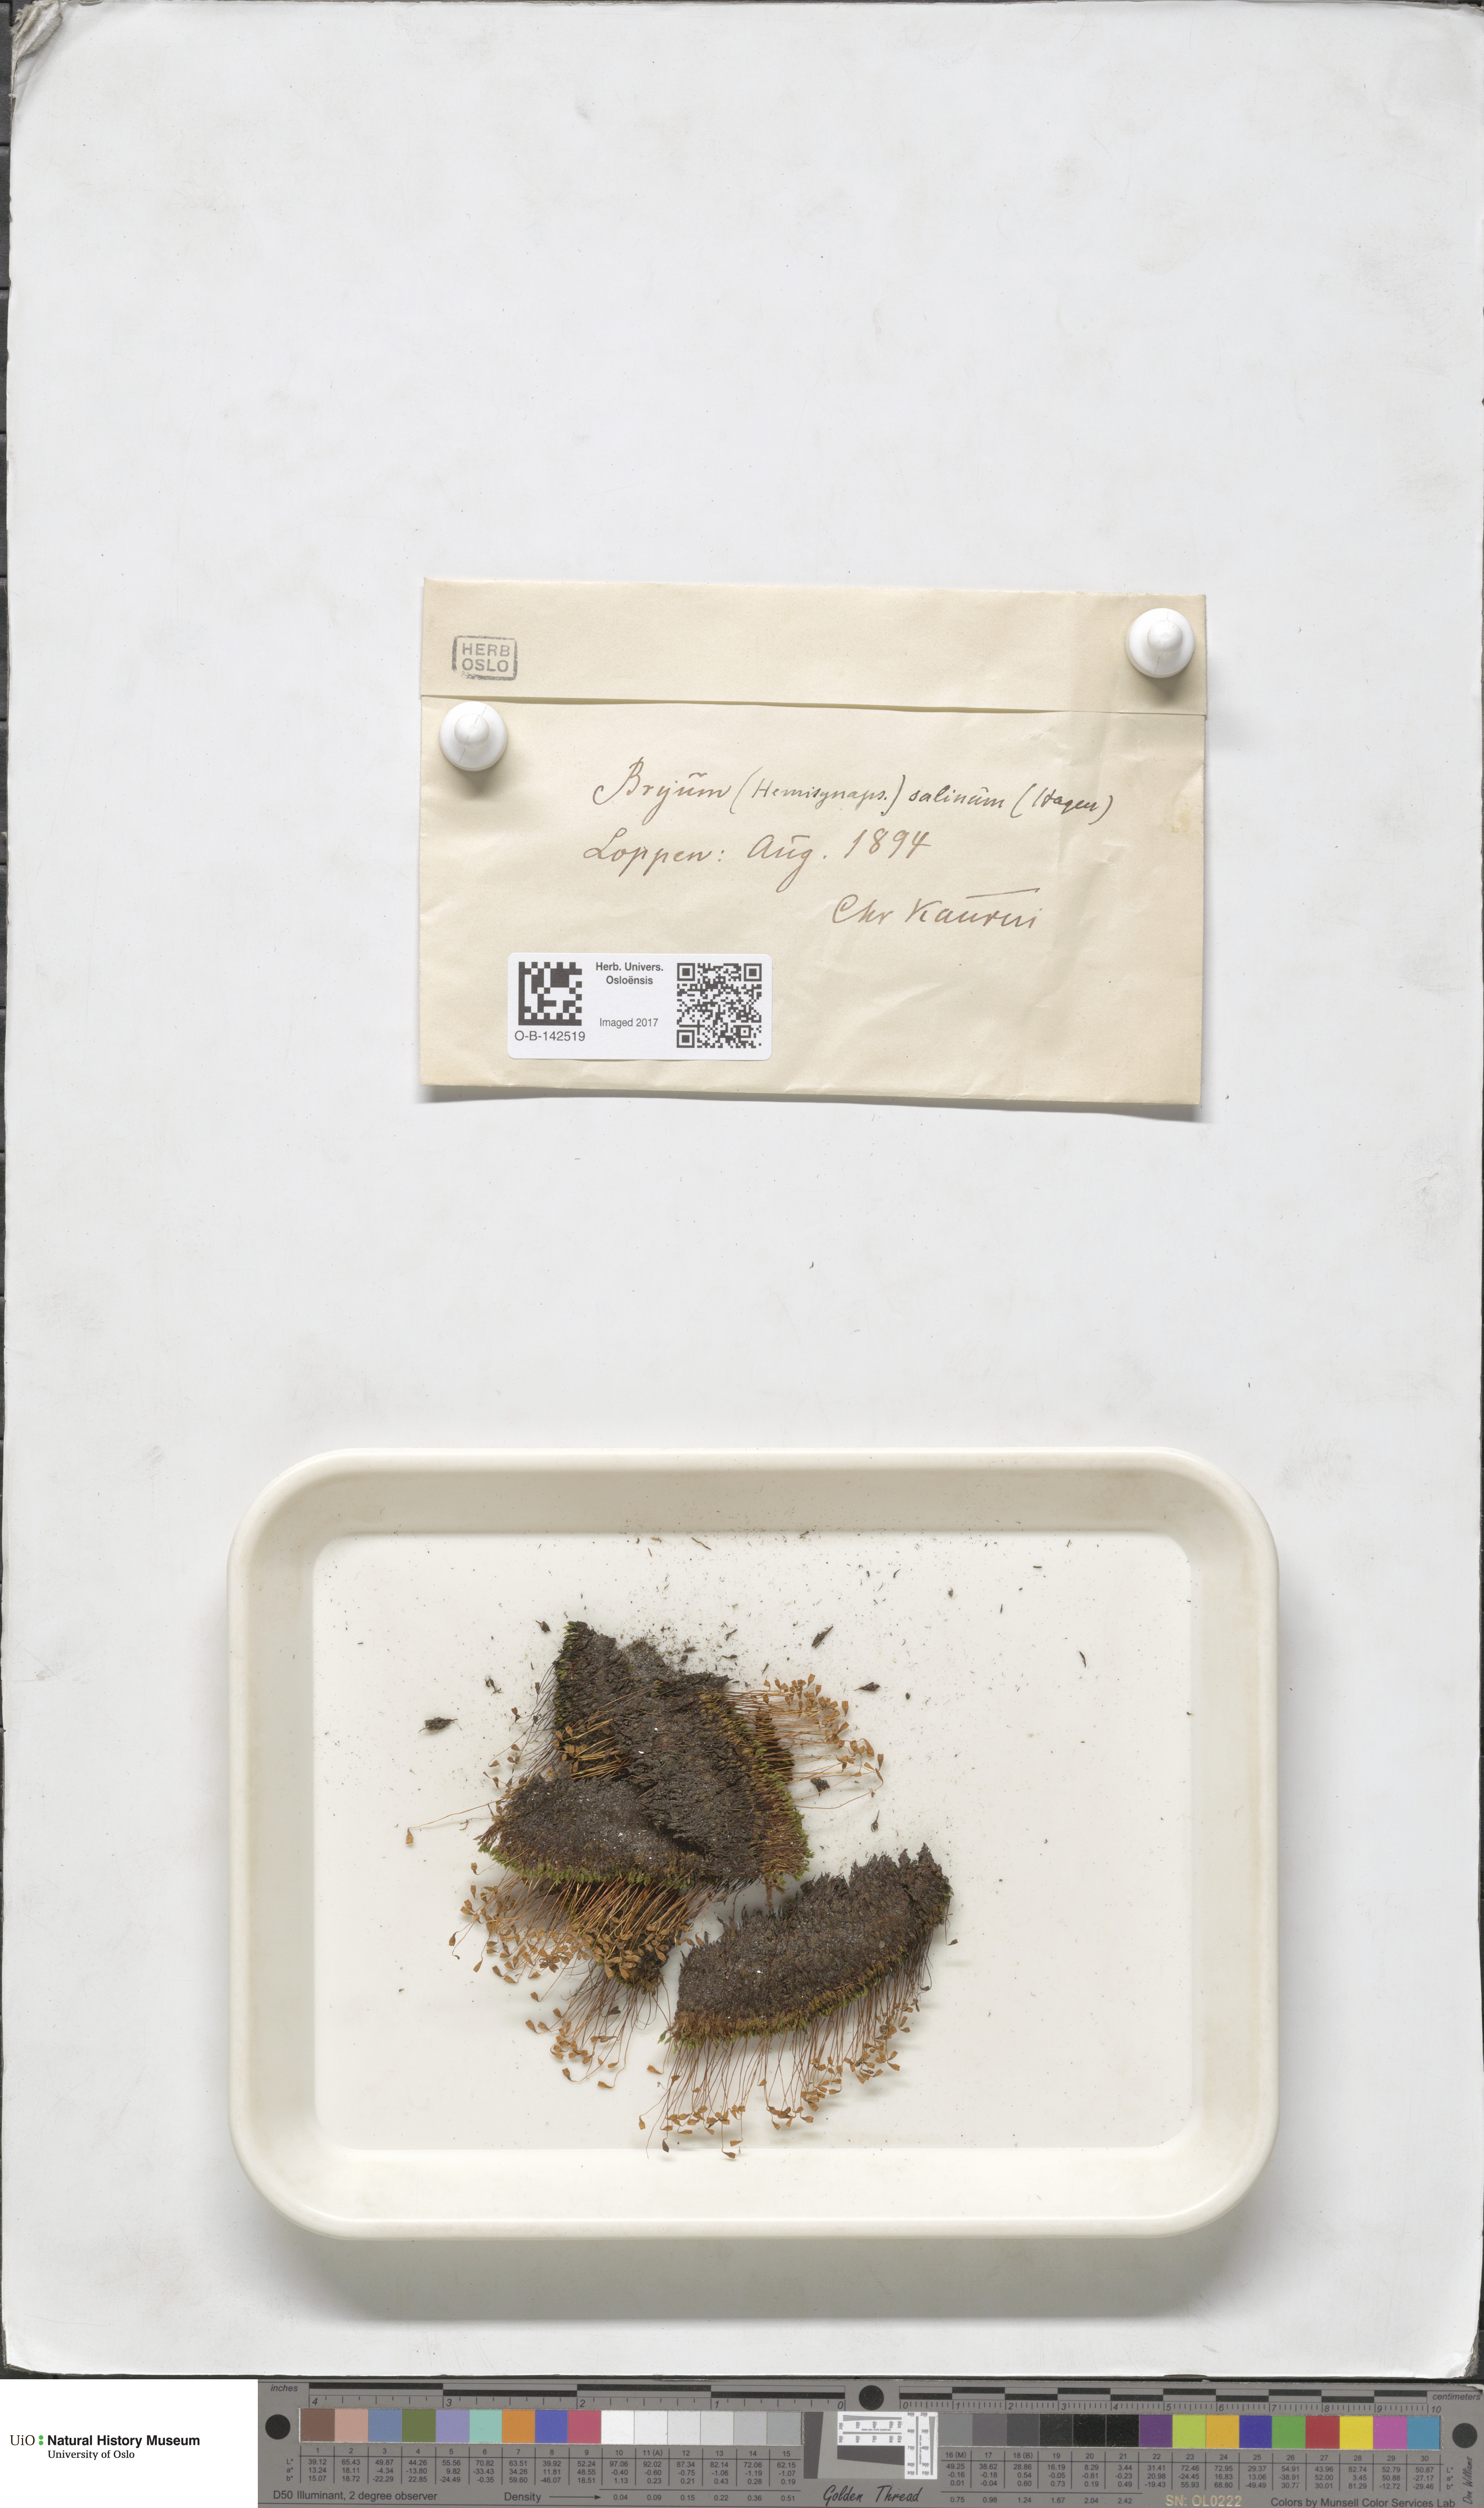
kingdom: Plantae
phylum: Bryophyta
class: Bryopsida
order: Bryales
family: Bryaceae
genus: Ptychostomum
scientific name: Ptychostomum salinum
